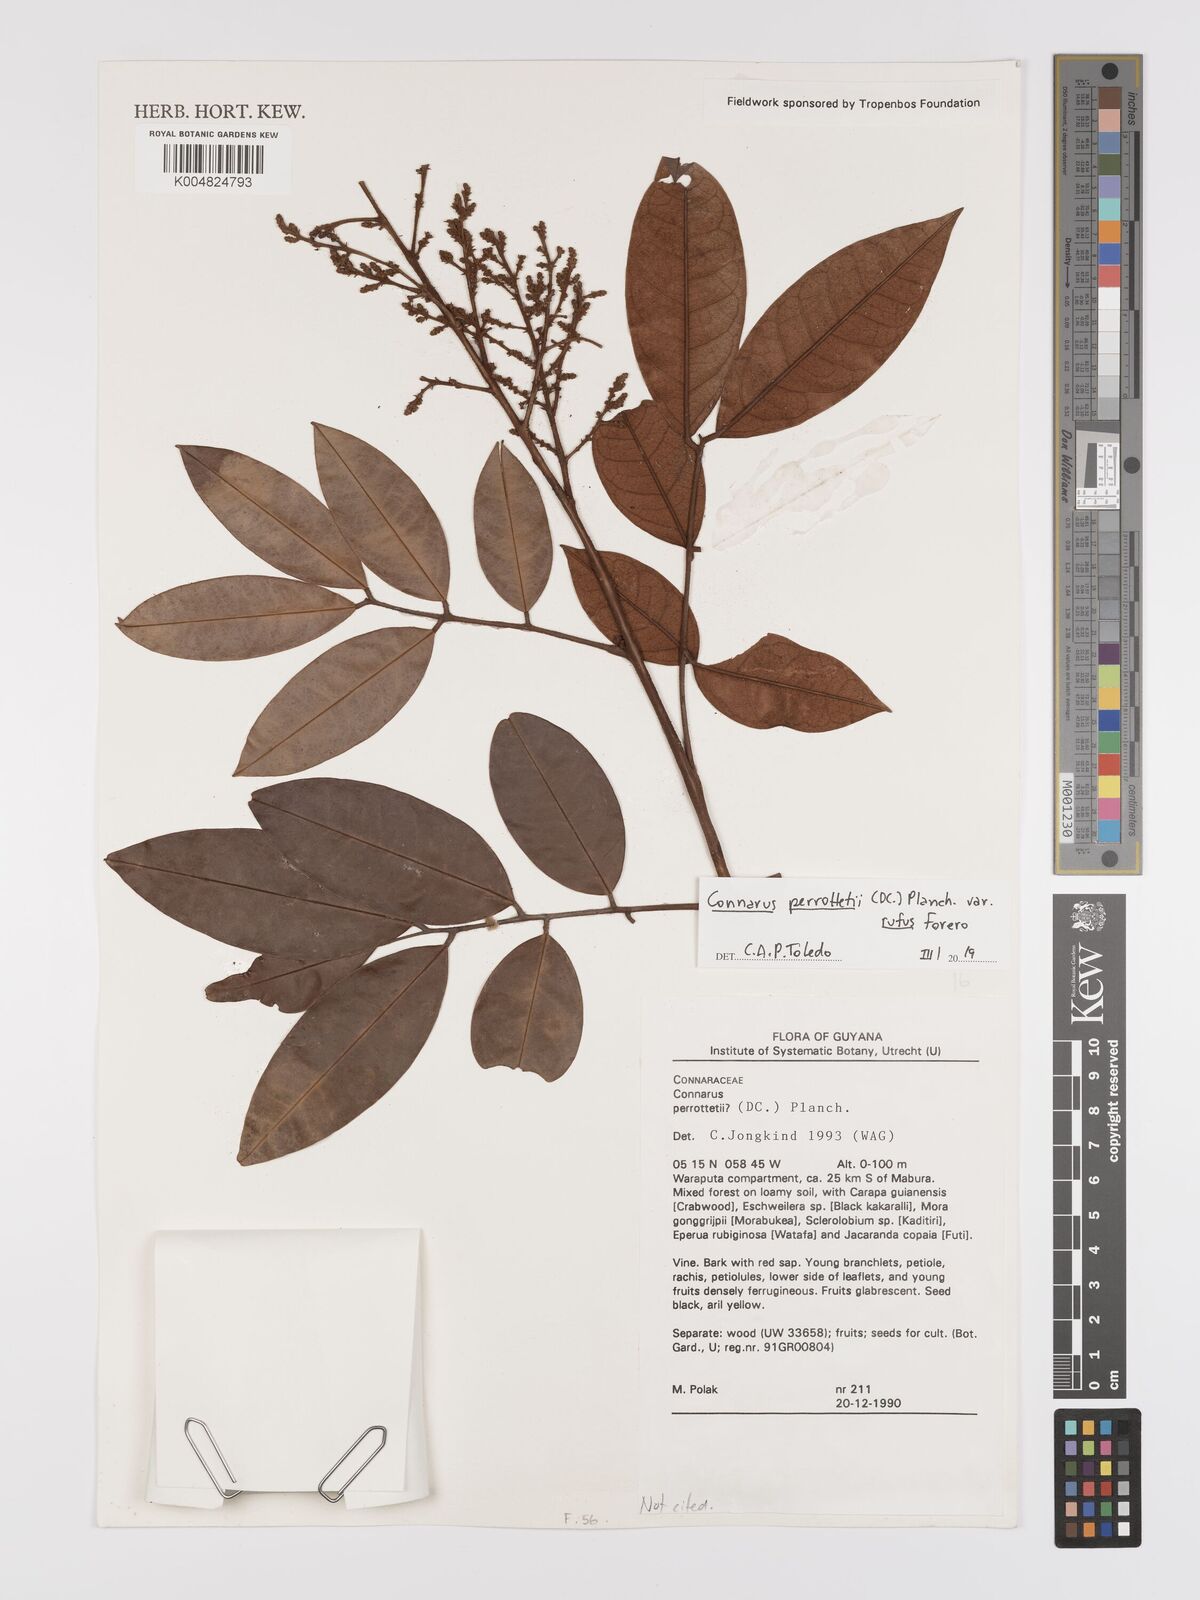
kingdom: Plantae
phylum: Tracheophyta
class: Magnoliopsida
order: Oxalidales
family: Connaraceae
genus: Connarus
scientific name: Connarus perrottetii
